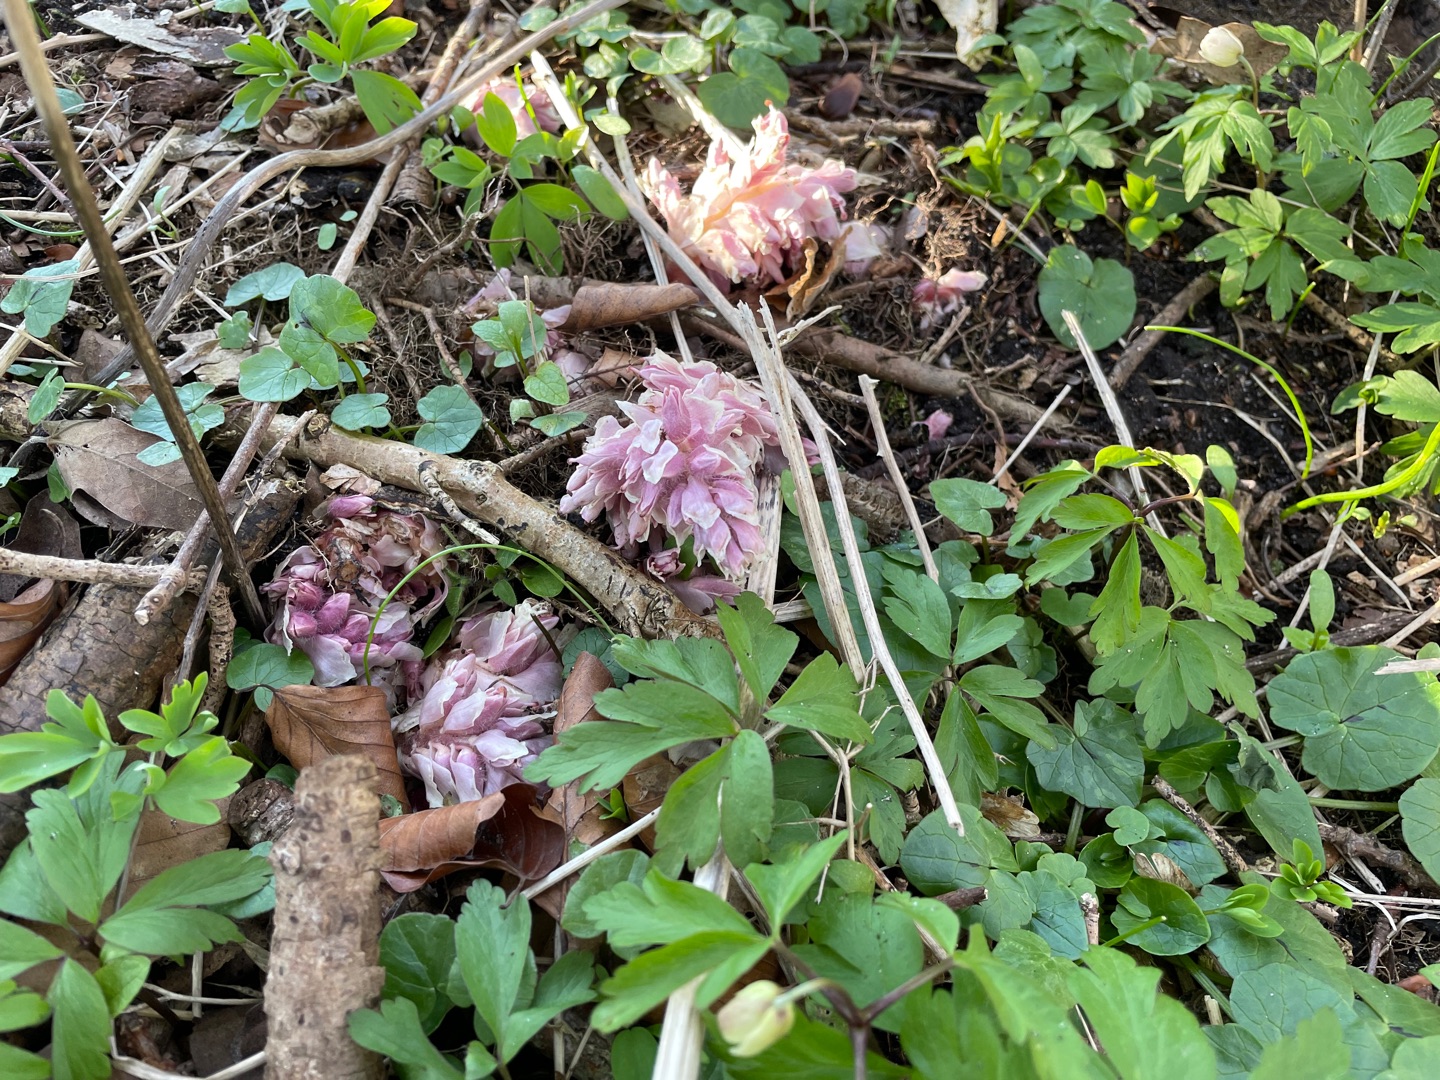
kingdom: Plantae
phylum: Tracheophyta
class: Magnoliopsida
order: Lamiales
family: Orobanchaceae
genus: Lathraea
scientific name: Lathraea squamaria
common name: Skælrod
